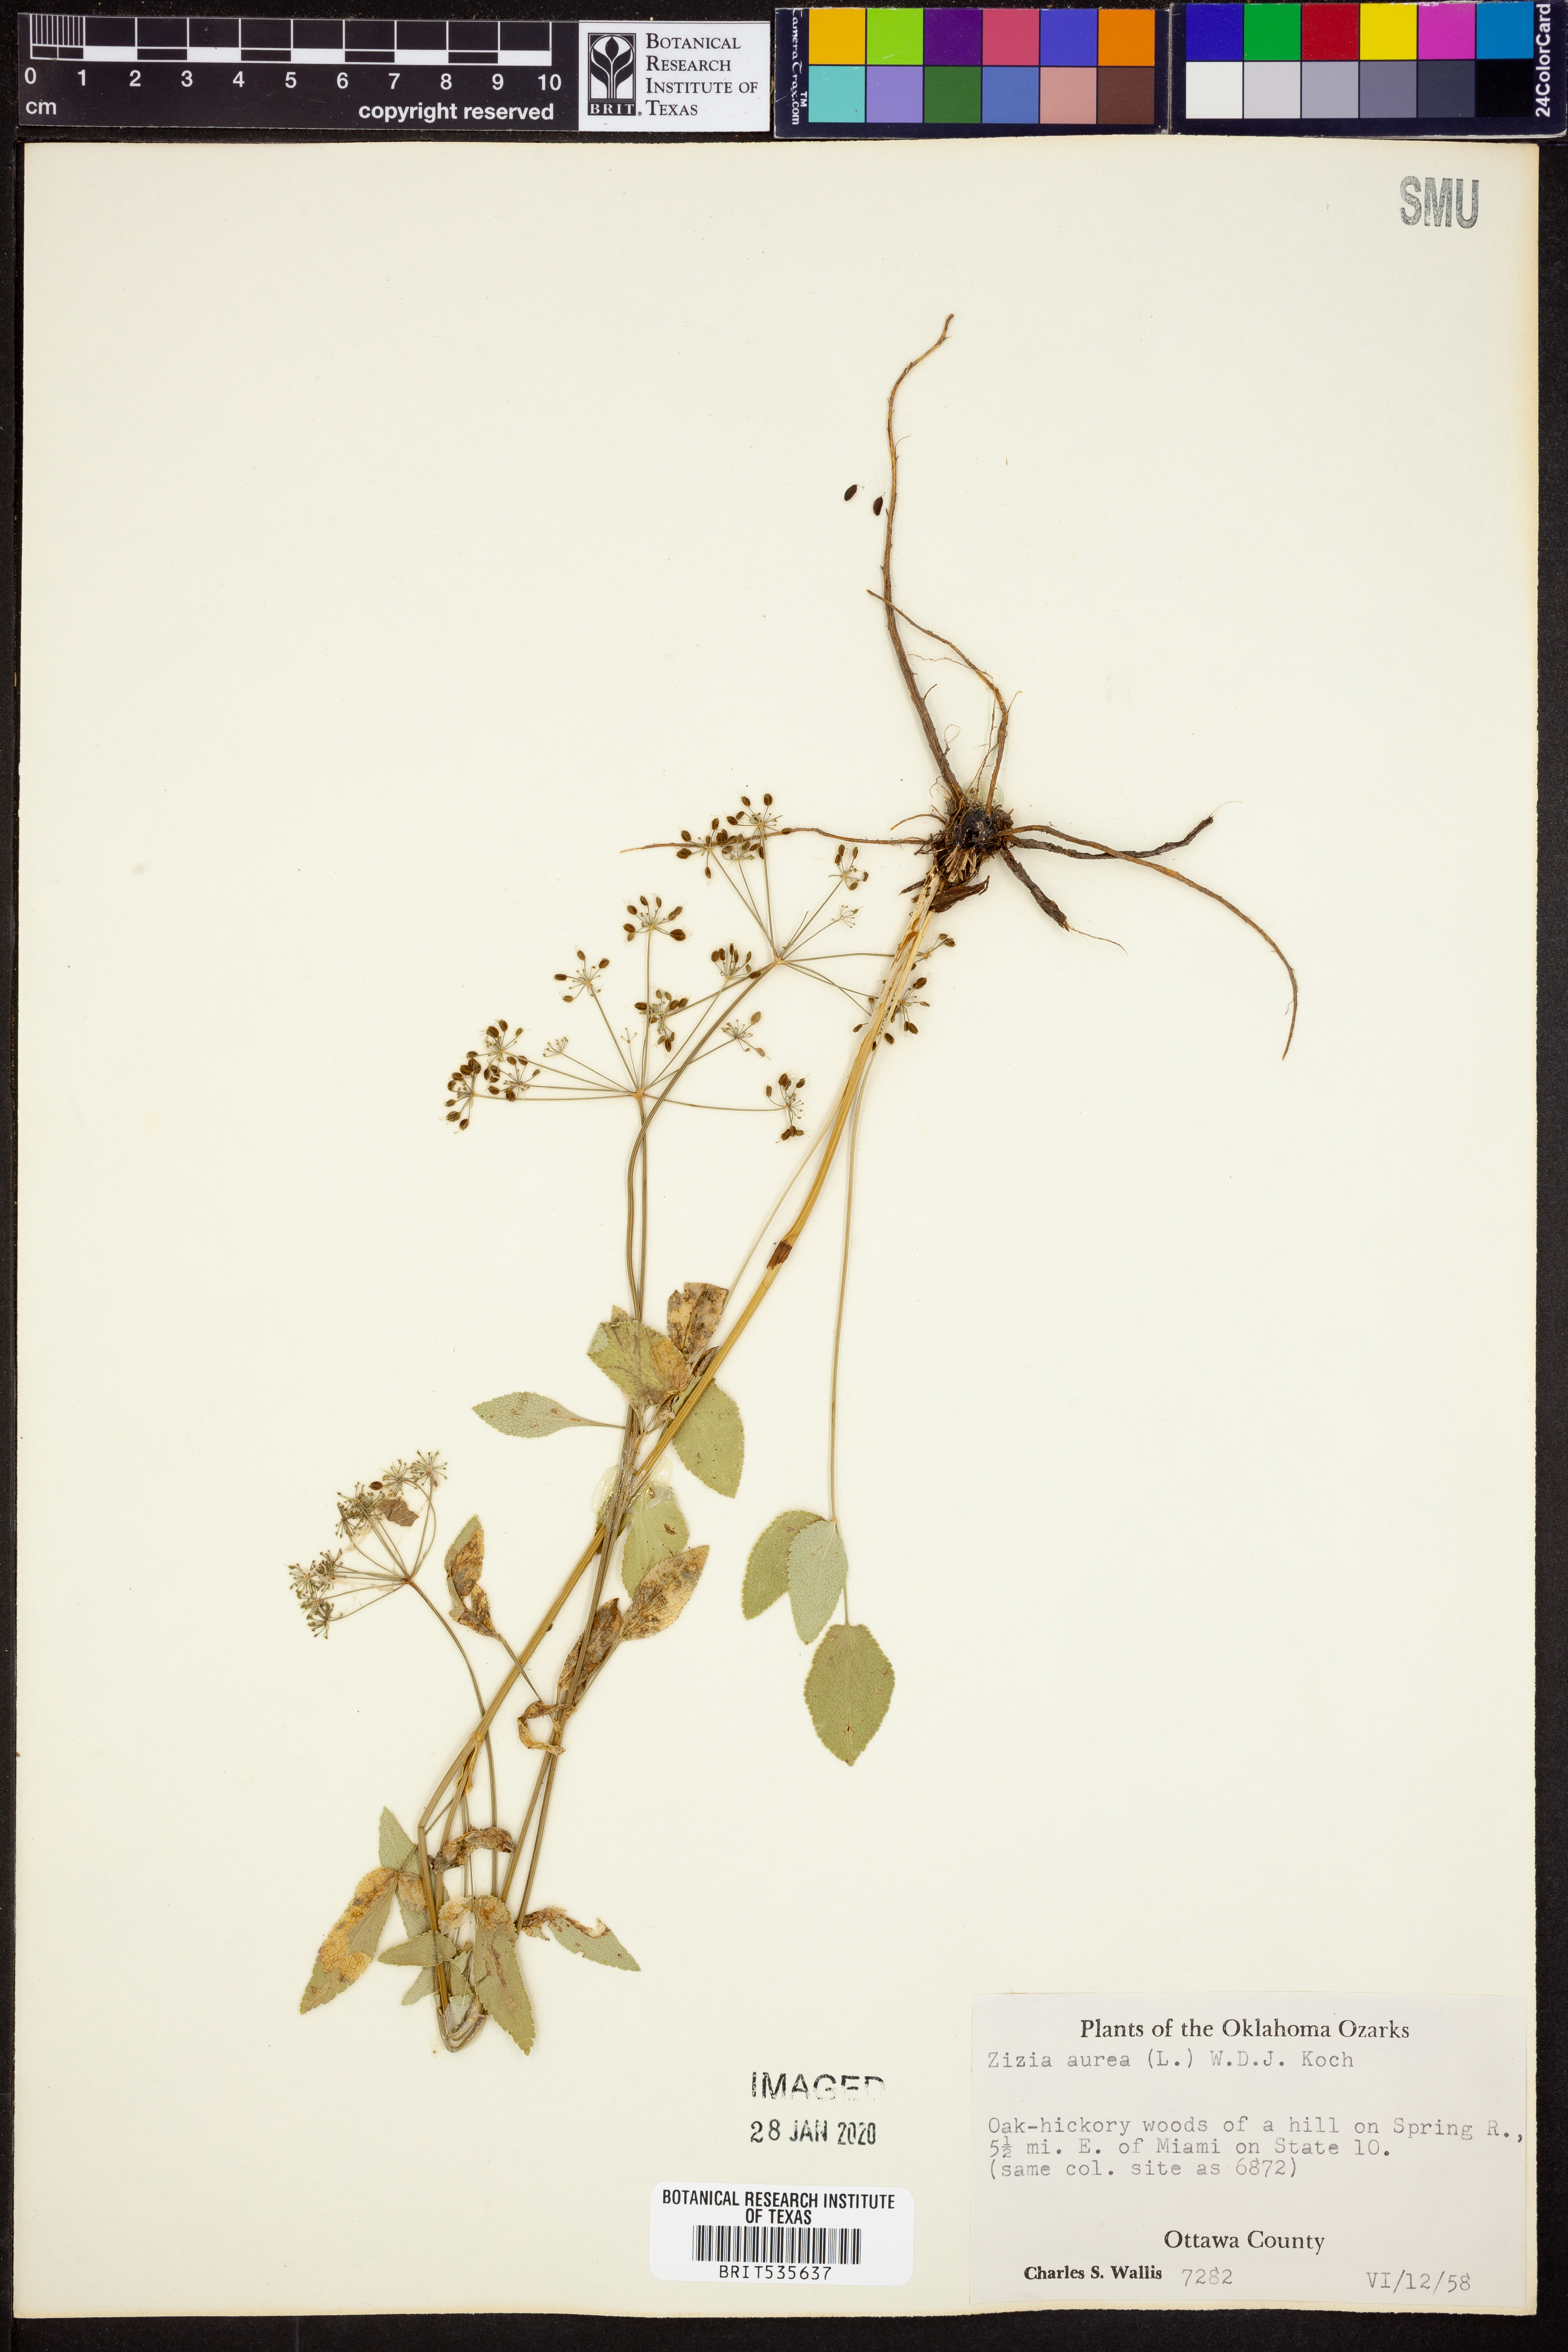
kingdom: Plantae
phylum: Tracheophyta
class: Magnoliopsida
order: Apiales
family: Apiaceae
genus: Zizia
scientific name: Zizia aurea
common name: Golden alexanders
